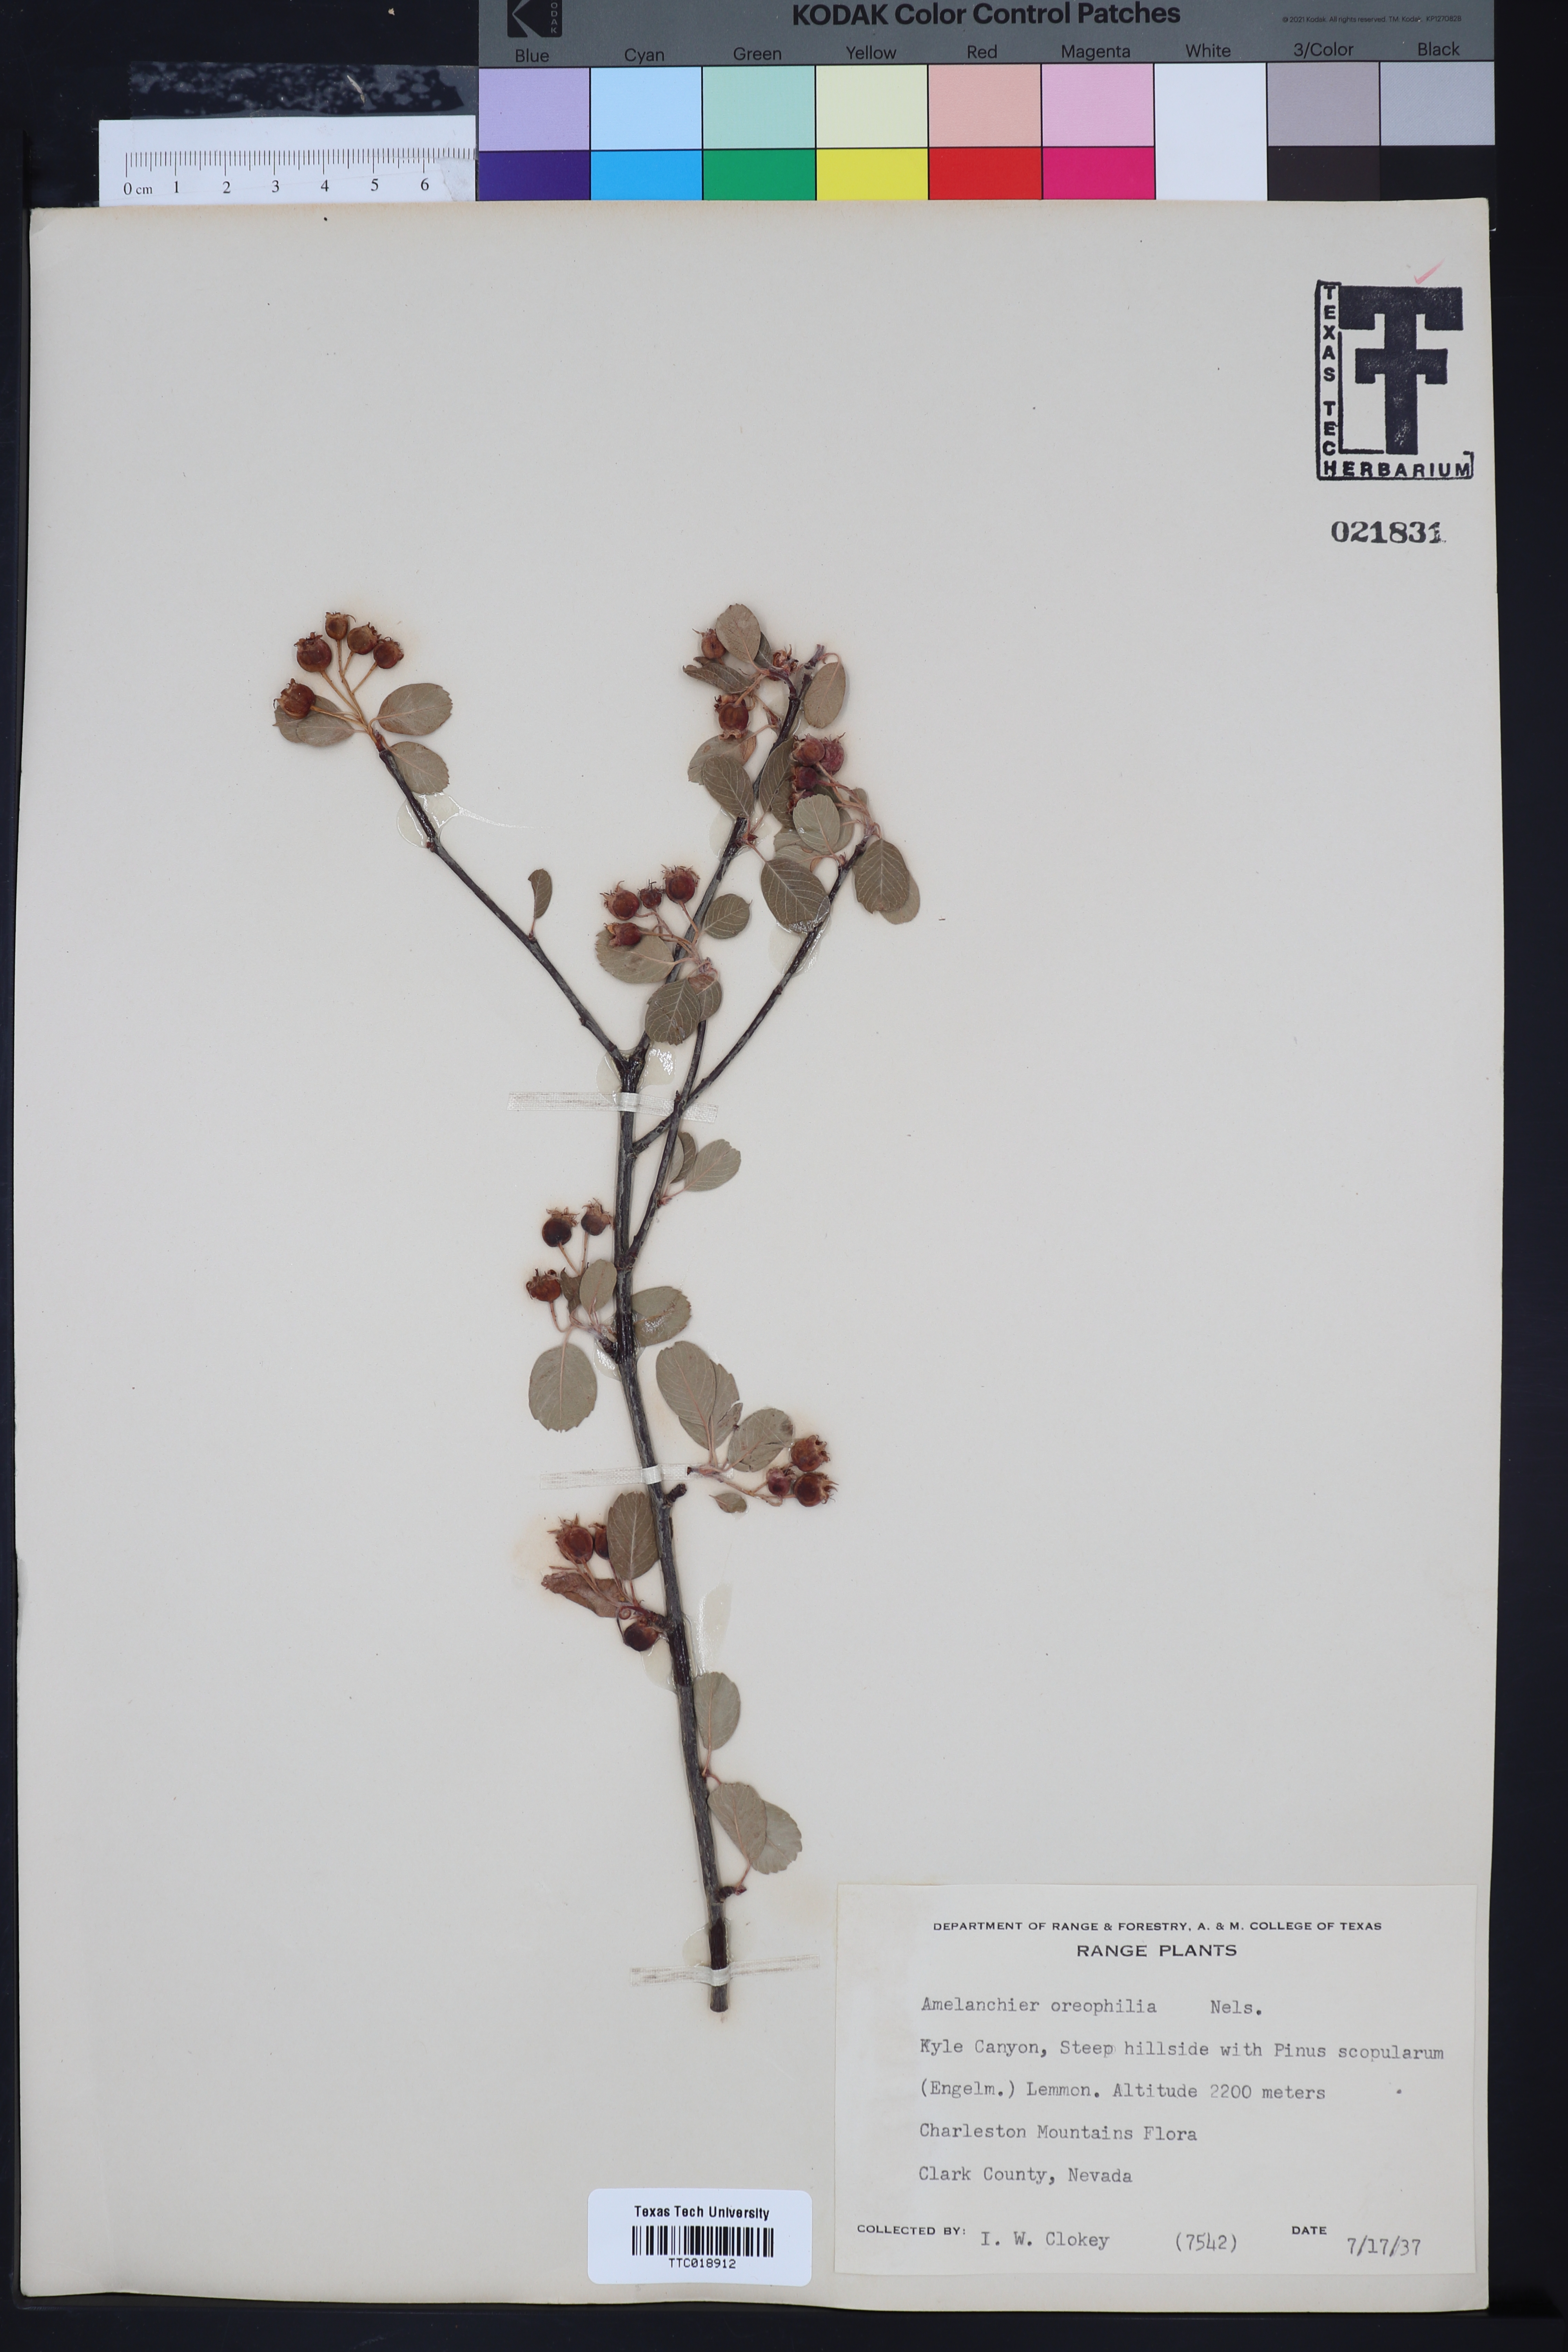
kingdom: Plantae
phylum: Tracheophyta
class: Magnoliopsida
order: Rosales
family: Rosaceae
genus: Amelanchier
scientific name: Amelanchier utahensis
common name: Utah serviceberry
